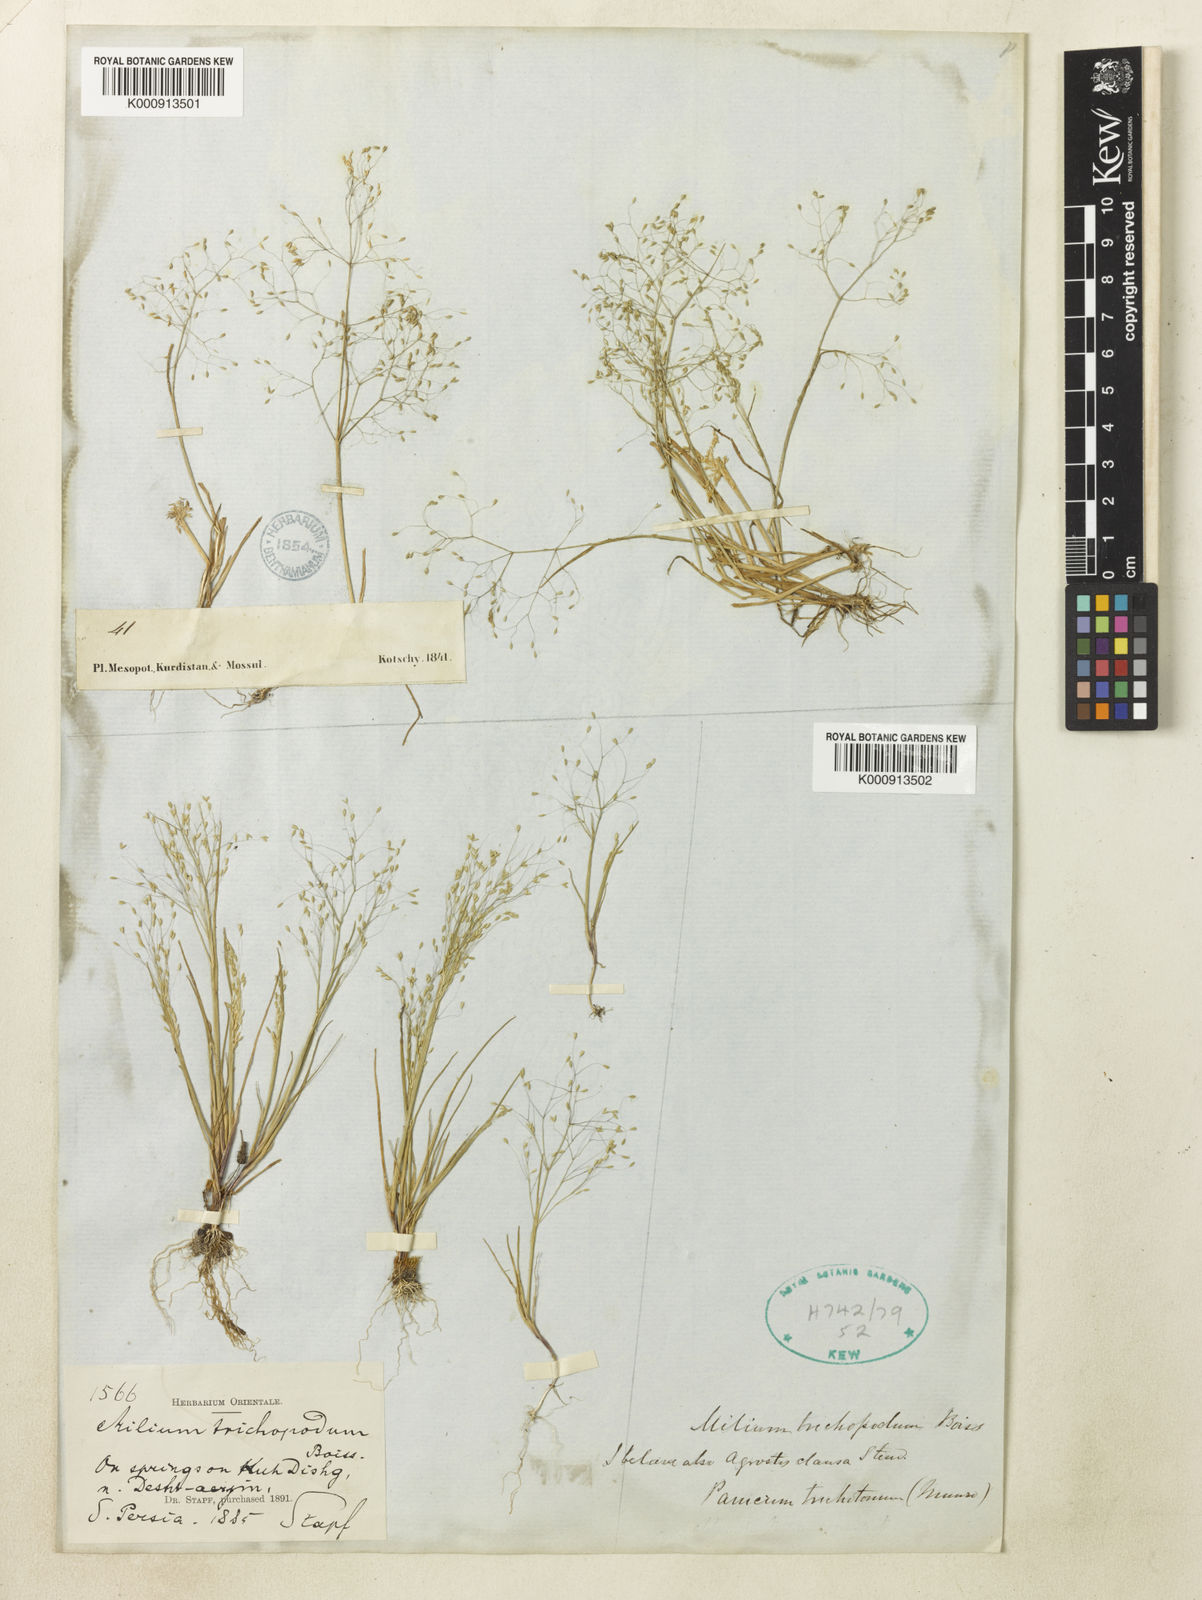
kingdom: Plantae
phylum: Tracheophyta
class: Liliopsida
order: Poales
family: Poaceae
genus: Colpodium
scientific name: Colpodium trichopodum
